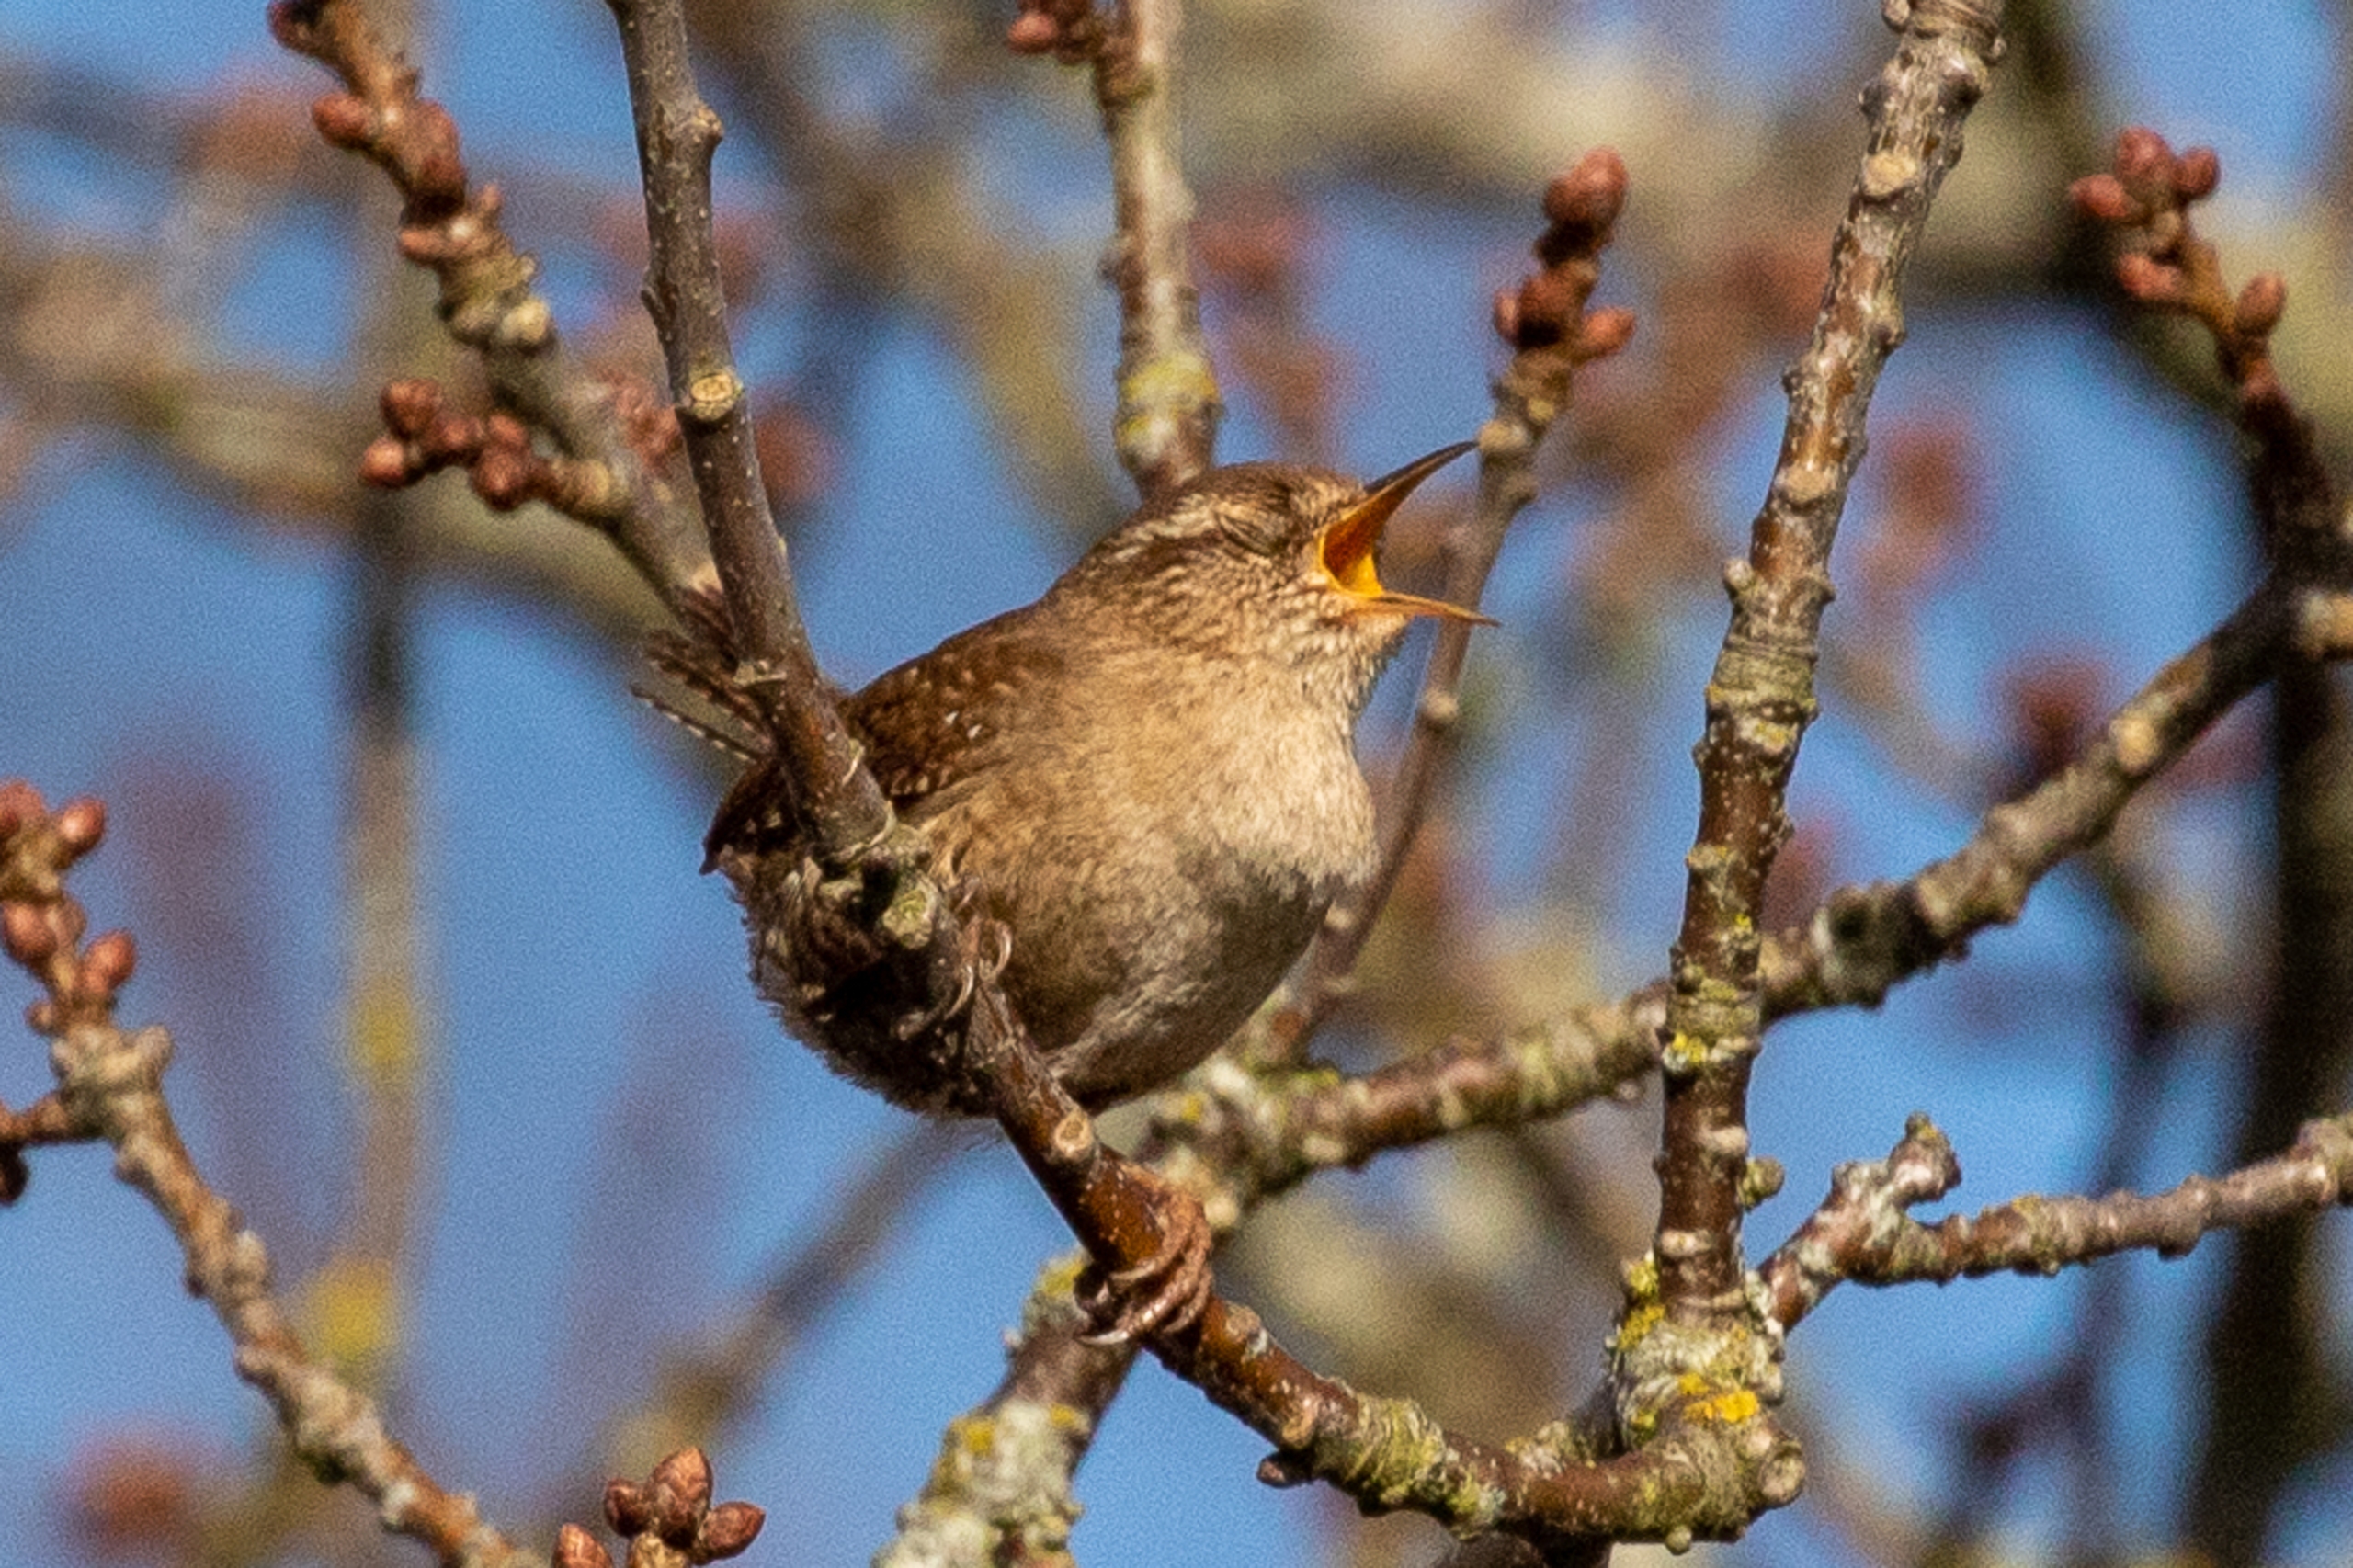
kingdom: Animalia
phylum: Chordata
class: Aves
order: Passeriformes
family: Troglodytidae
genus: Troglodytes
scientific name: Troglodytes troglodytes
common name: Gærdesmutte
